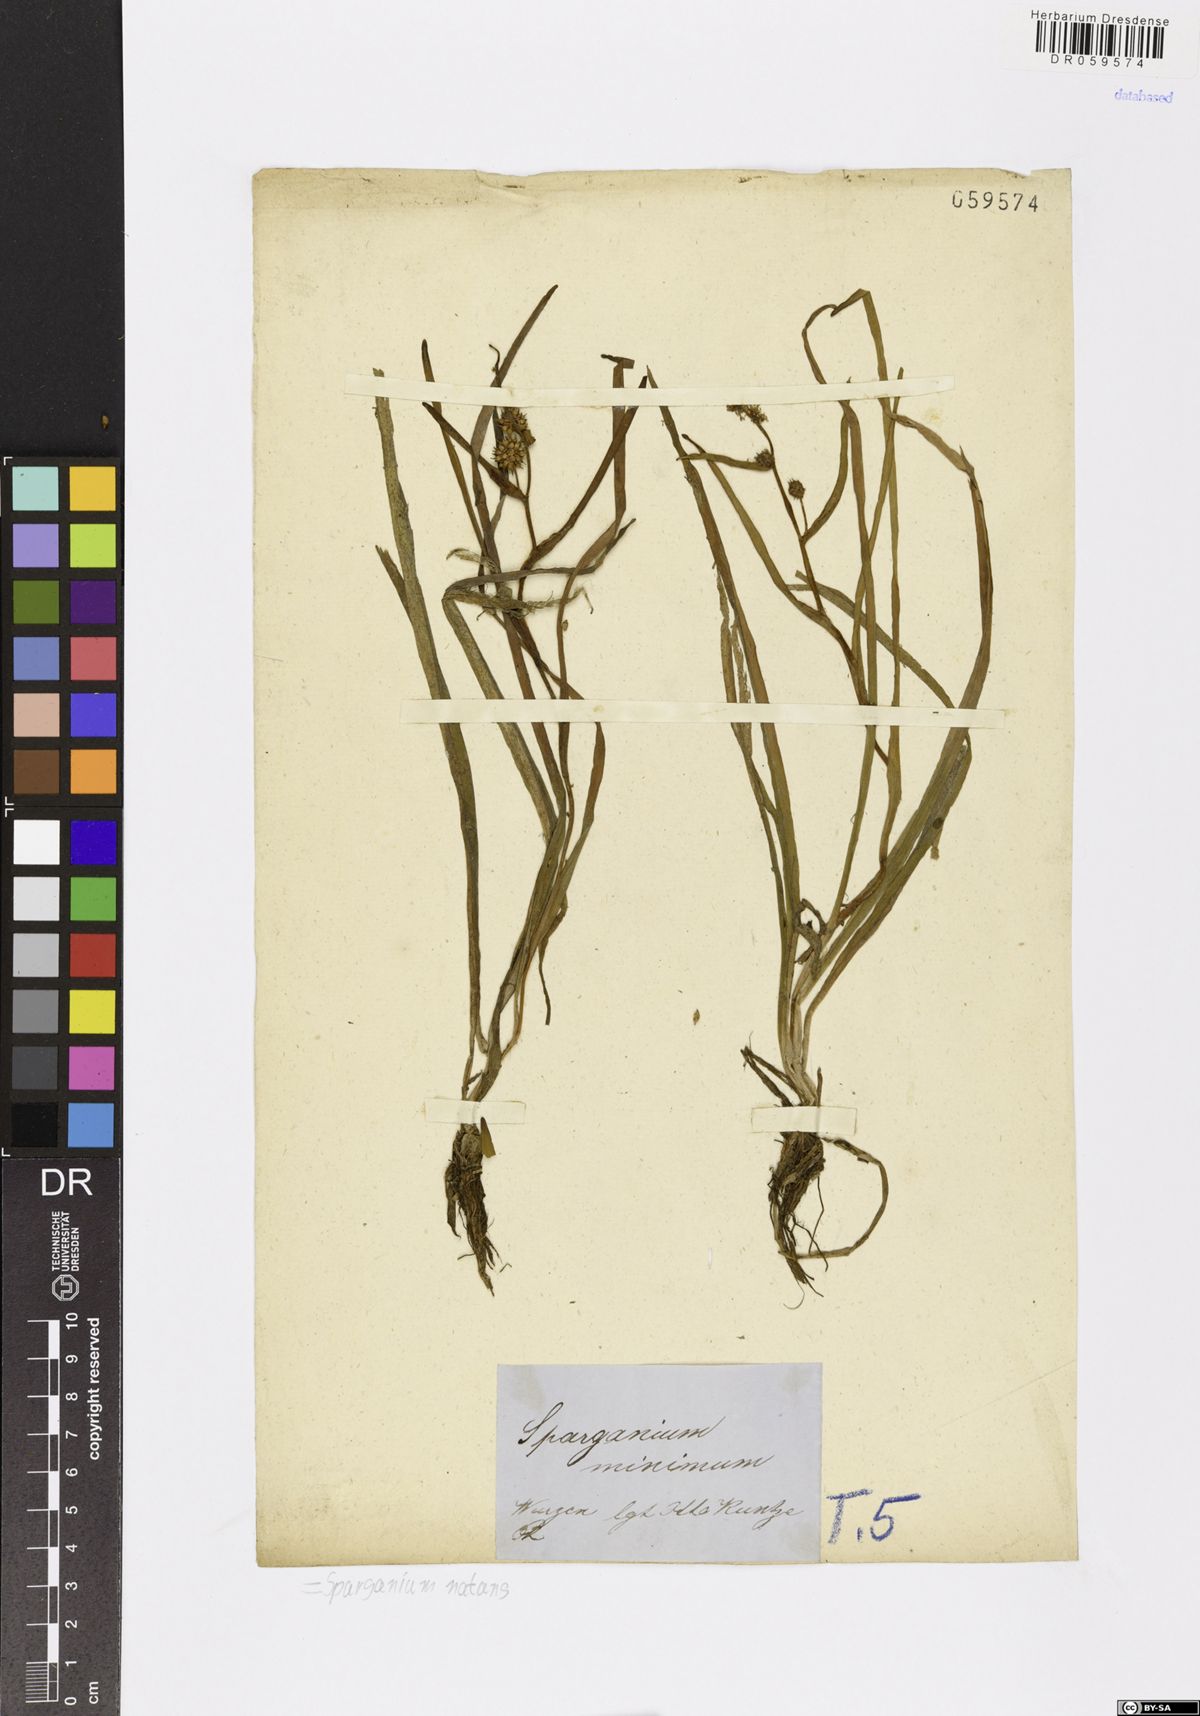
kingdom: Plantae
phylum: Tracheophyta
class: Liliopsida
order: Poales
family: Typhaceae
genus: Sparganium
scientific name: Sparganium natans
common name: Least bur-reed
